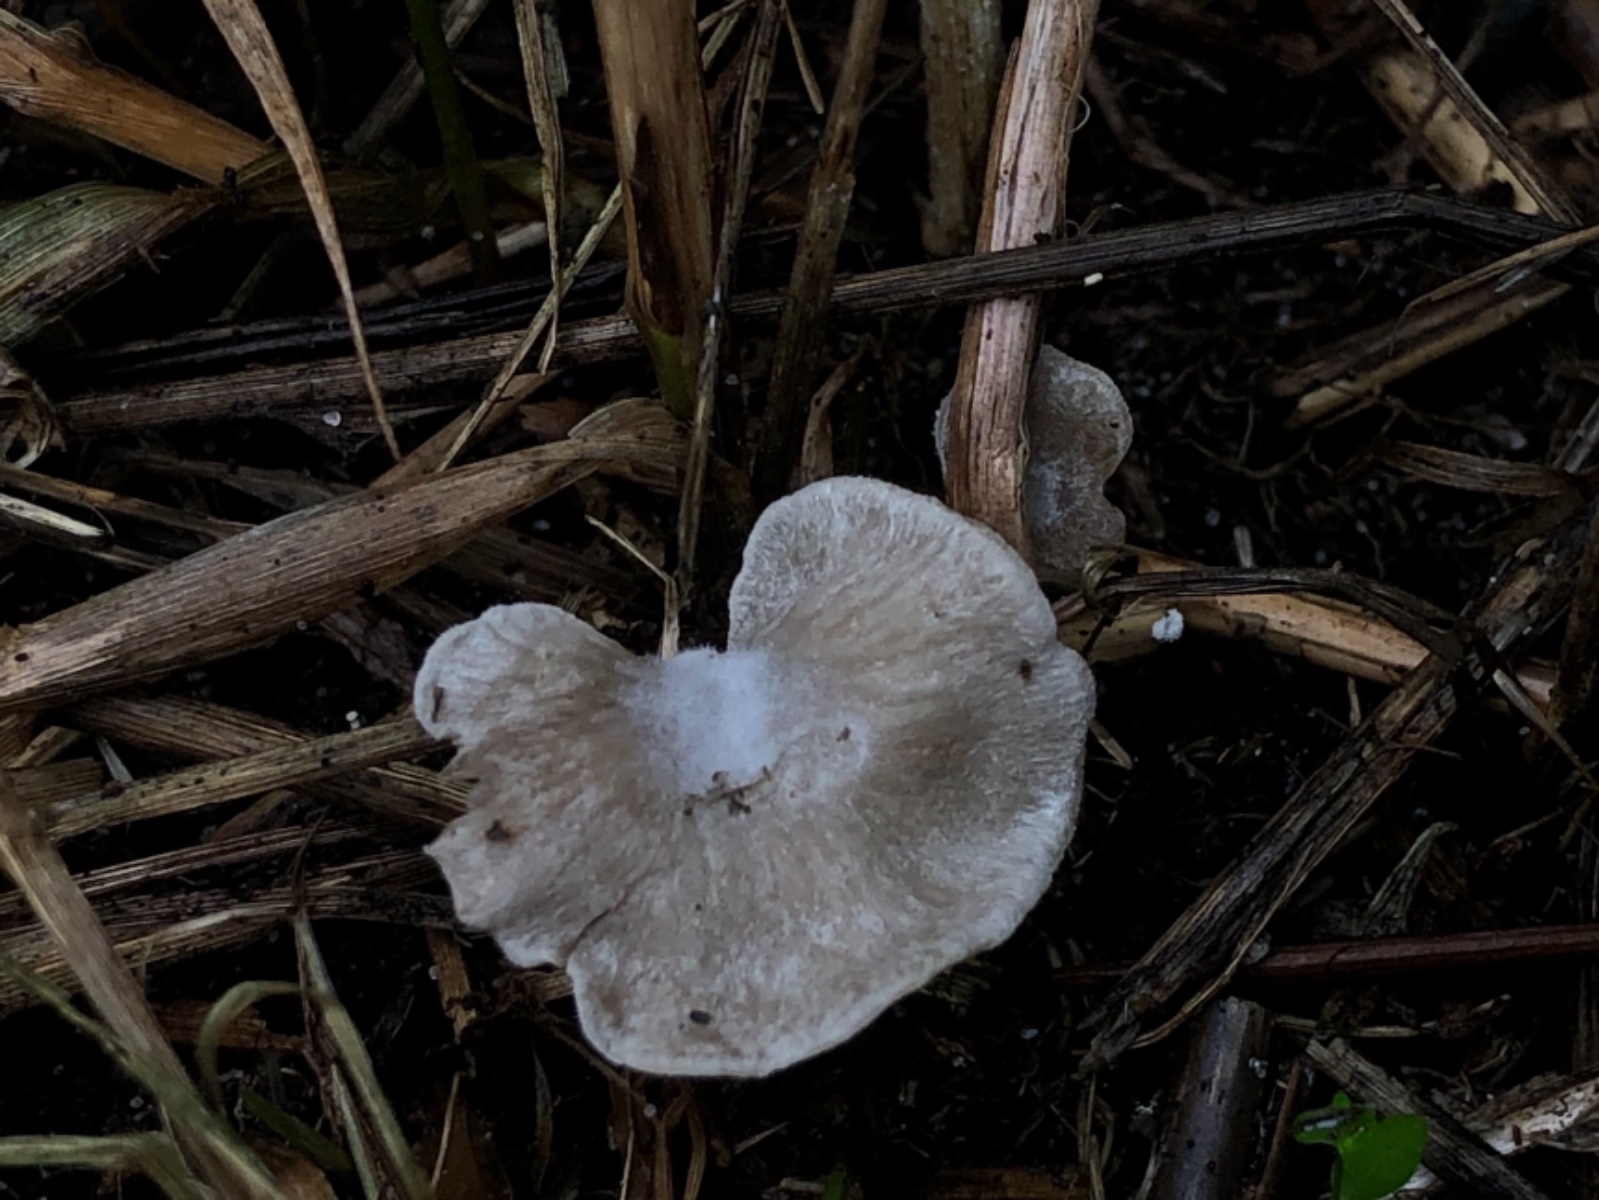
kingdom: Fungi
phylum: Basidiomycota
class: Agaricomycetes
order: Agaricales
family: Hygrophoraceae
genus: Arrhenia
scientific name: Arrhenia glauca
